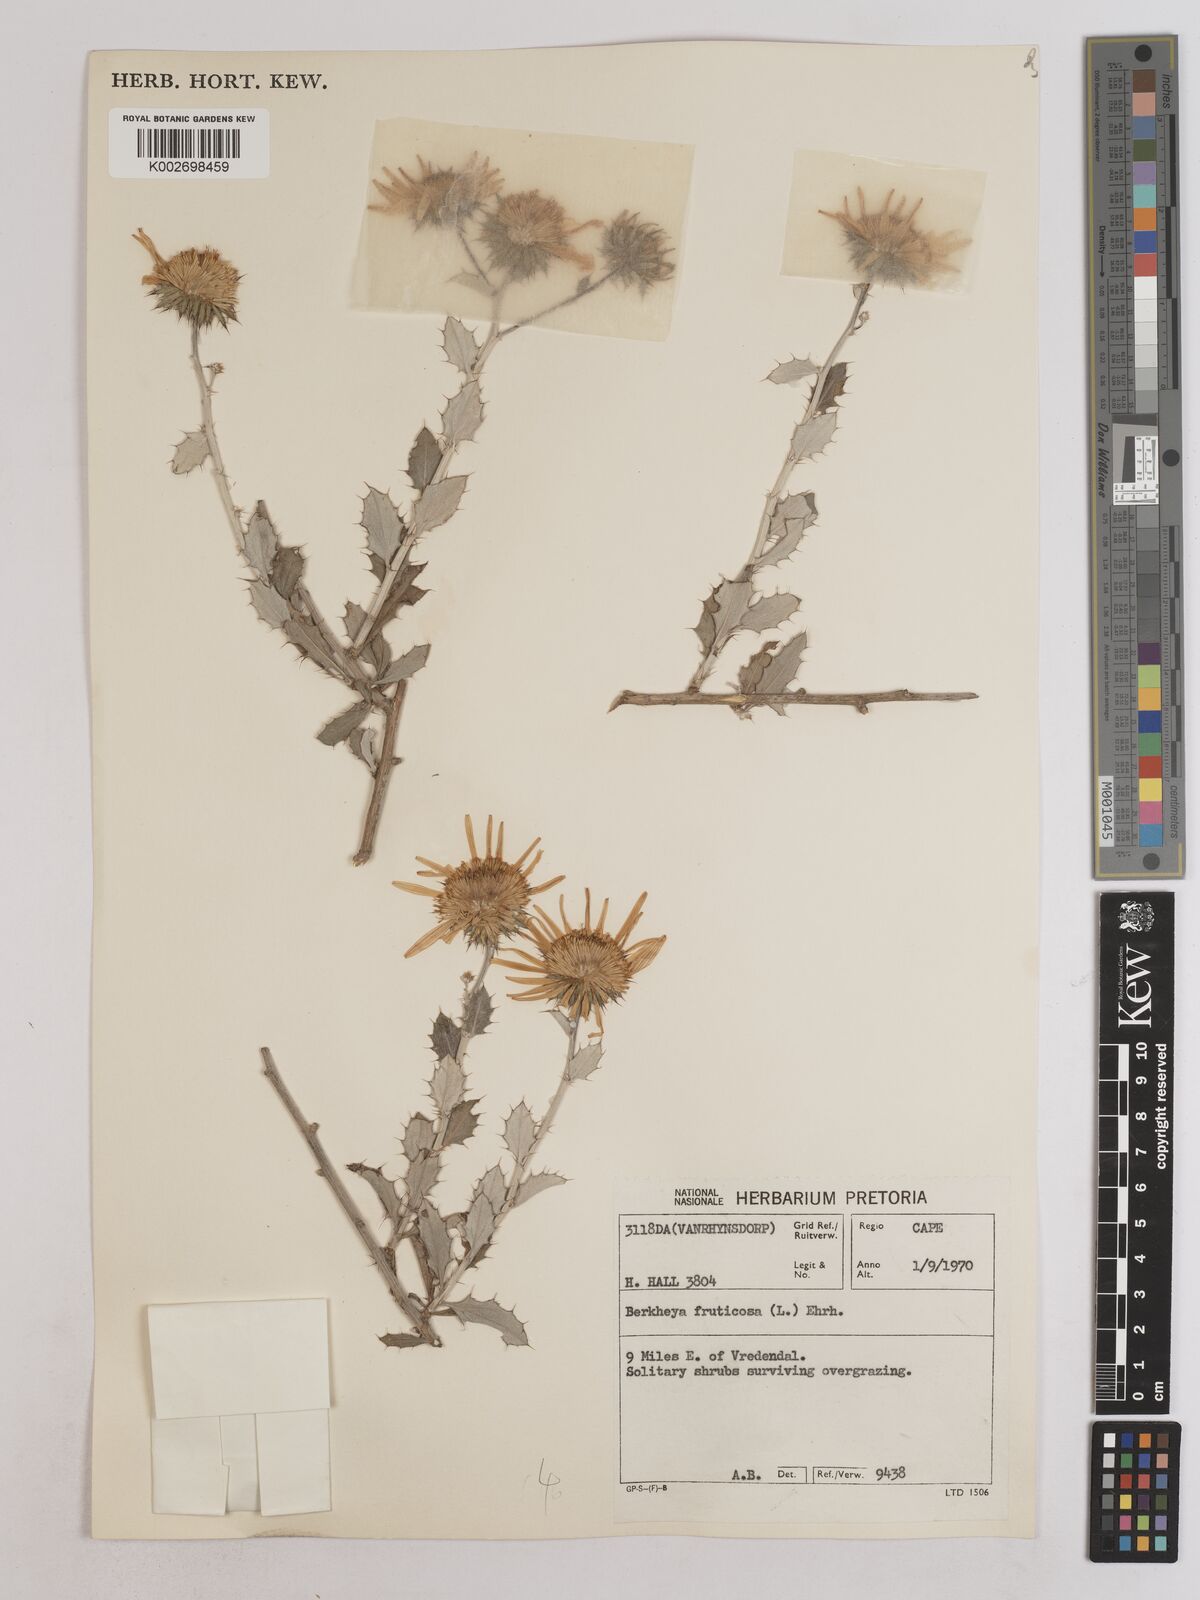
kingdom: Plantae
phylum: Tracheophyta
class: Magnoliopsida
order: Asterales
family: Asteraceae
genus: Berkheya
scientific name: Berkheya fruticosa
